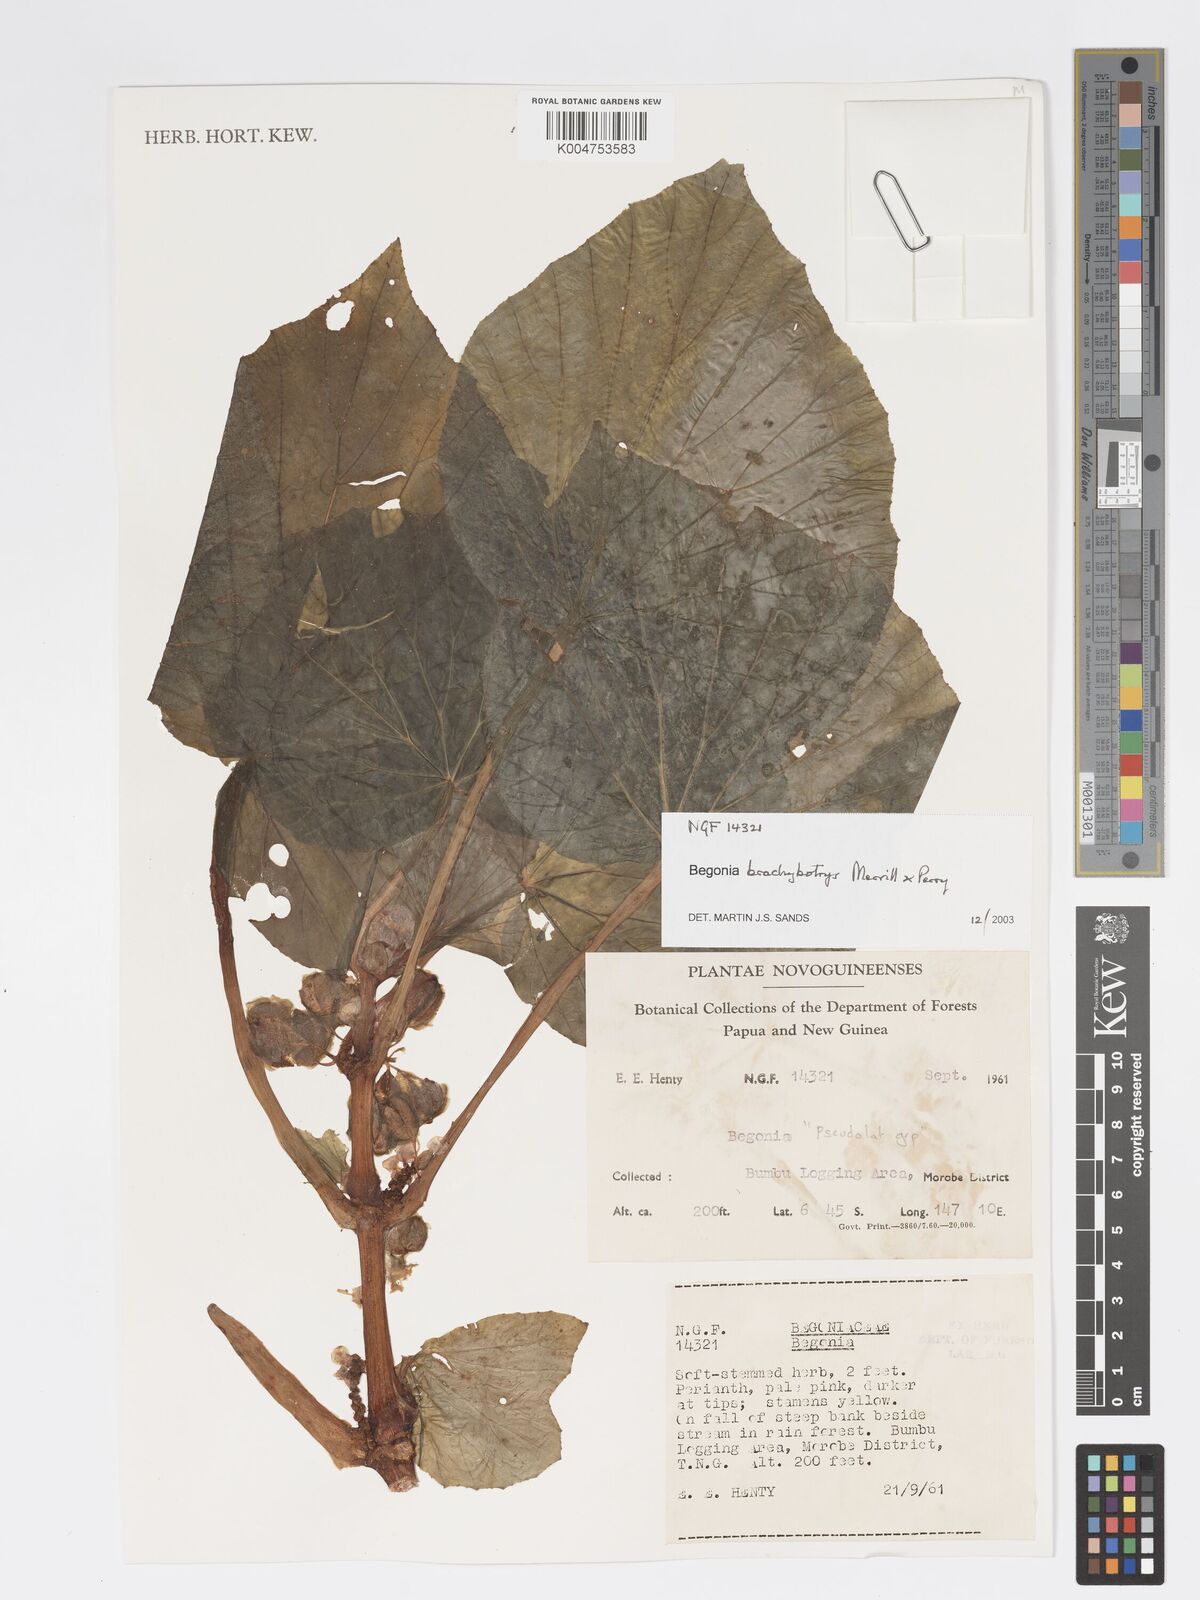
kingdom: Plantae
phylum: Tracheophyta
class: Magnoliopsida
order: Cucurbitales
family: Begoniaceae
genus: Begonia
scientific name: Begonia brachybotrys
